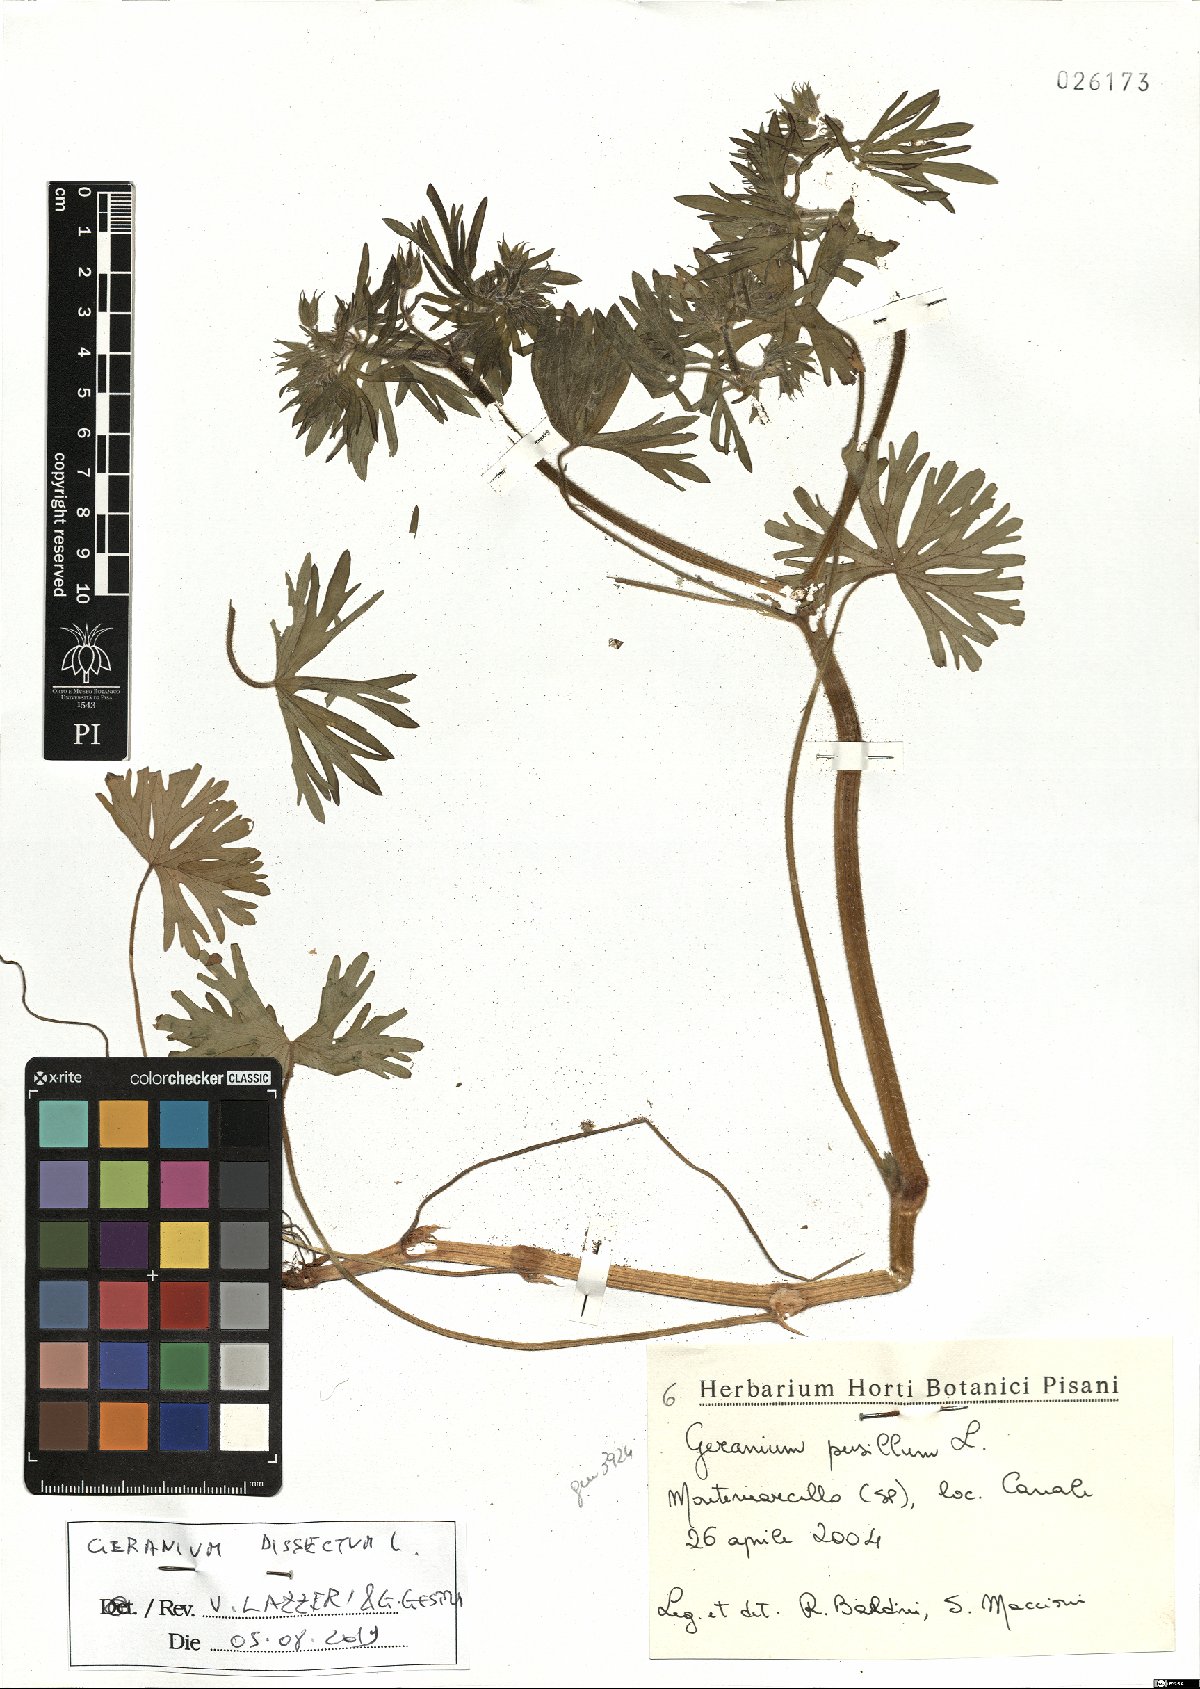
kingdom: Plantae
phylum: Tracheophyta
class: Magnoliopsida
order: Geraniales
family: Geraniaceae
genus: Geranium
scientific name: Geranium dissectum
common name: Cut-leaved crane's-bill
